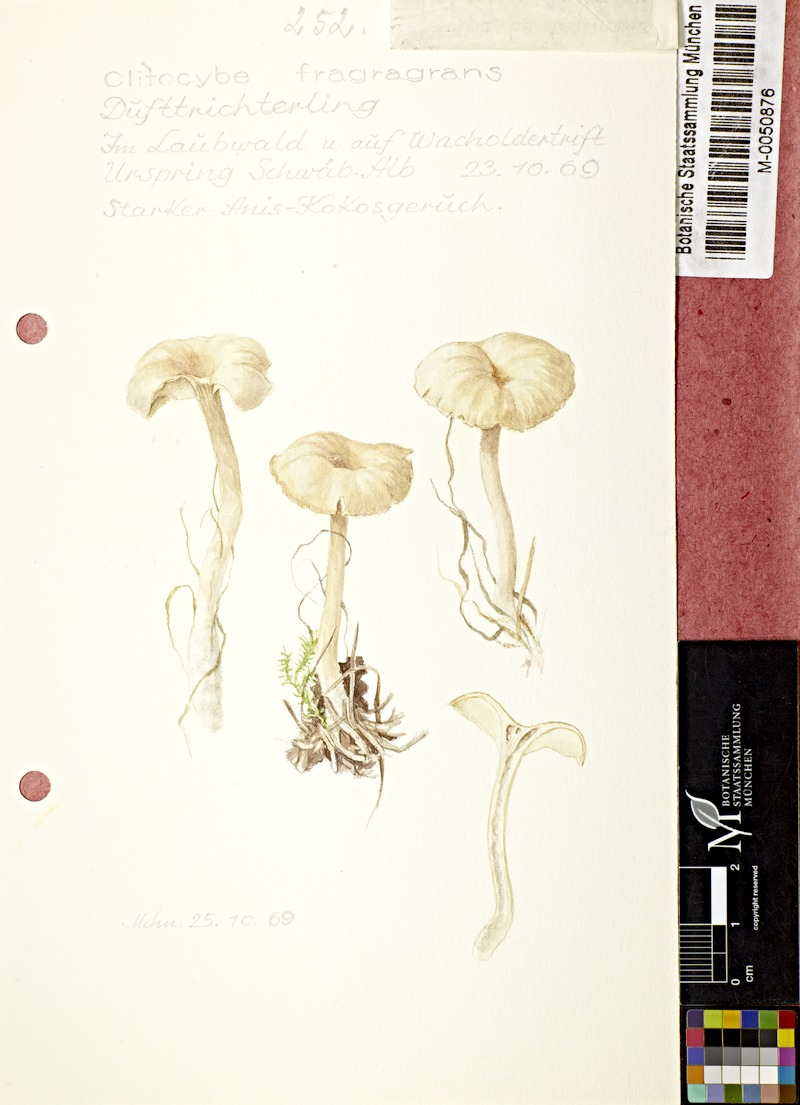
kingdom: Fungi
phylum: Basidiomycota
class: Agaricomycetes
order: Agaricales
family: Tricholomataceae
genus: Clitocybe
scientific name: Clitocybe fragrans
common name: Fragrant funnel
